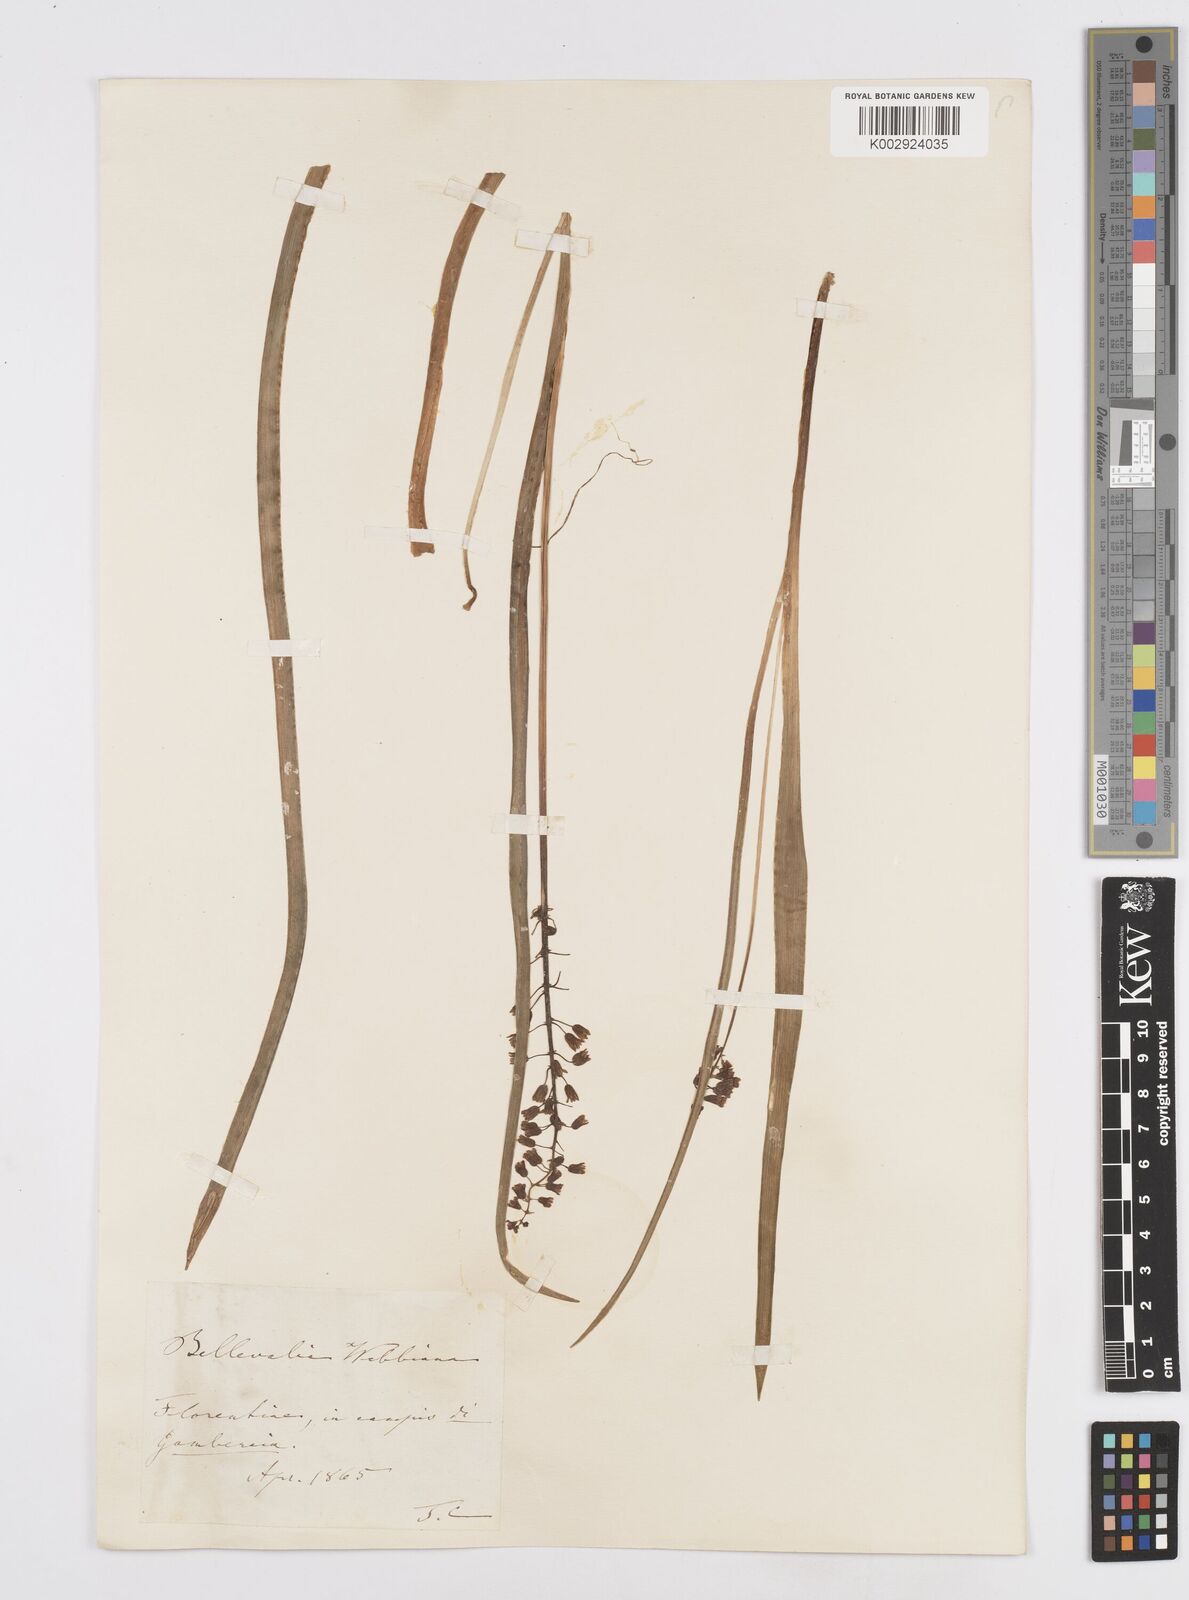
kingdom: Plantae
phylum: Tracheophyta
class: Liliopsida
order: Asparagales
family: Asparagaceae
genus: Bellevalia
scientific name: Bellevalia dubia
